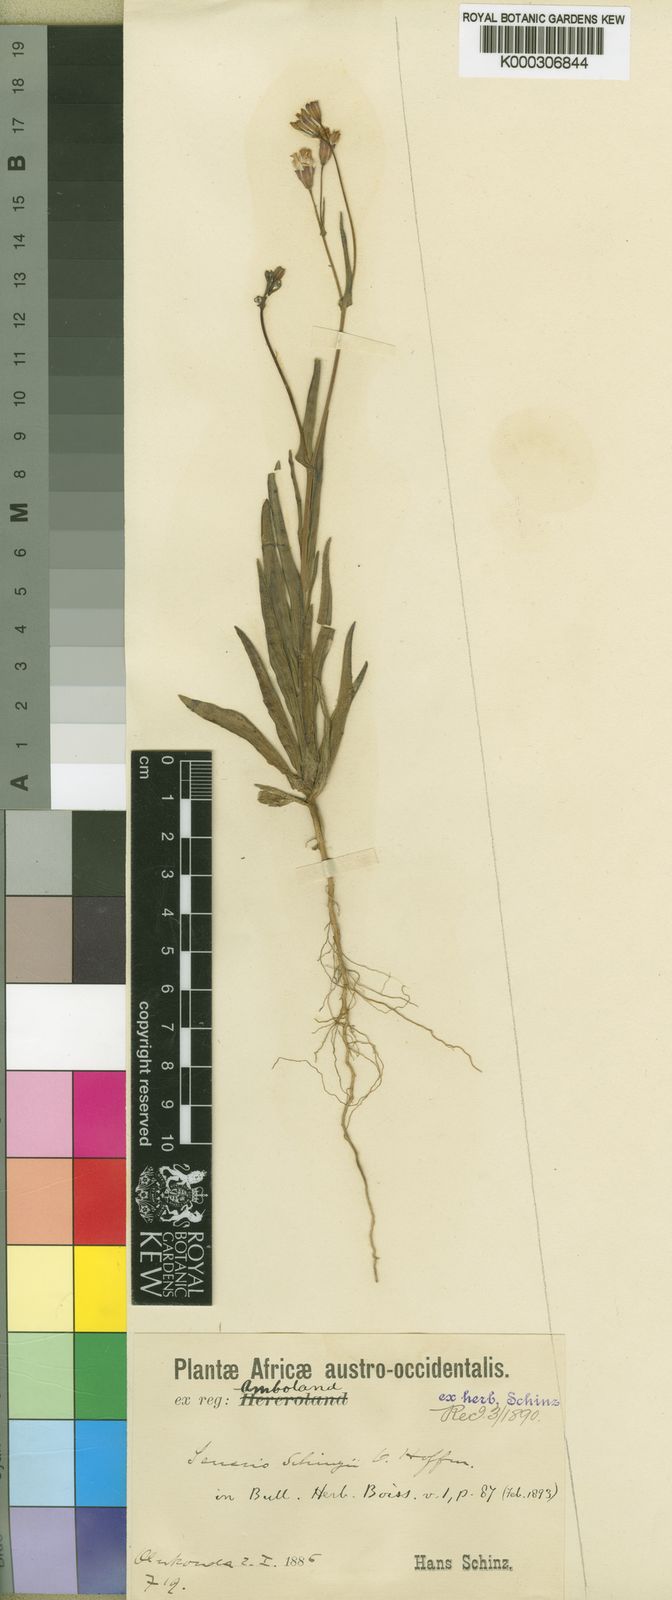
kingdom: Plantae
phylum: Tracheophyta
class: Magnoliopsida
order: Asterales
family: Asteraceae
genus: Emilia
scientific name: Emilia schinzii
